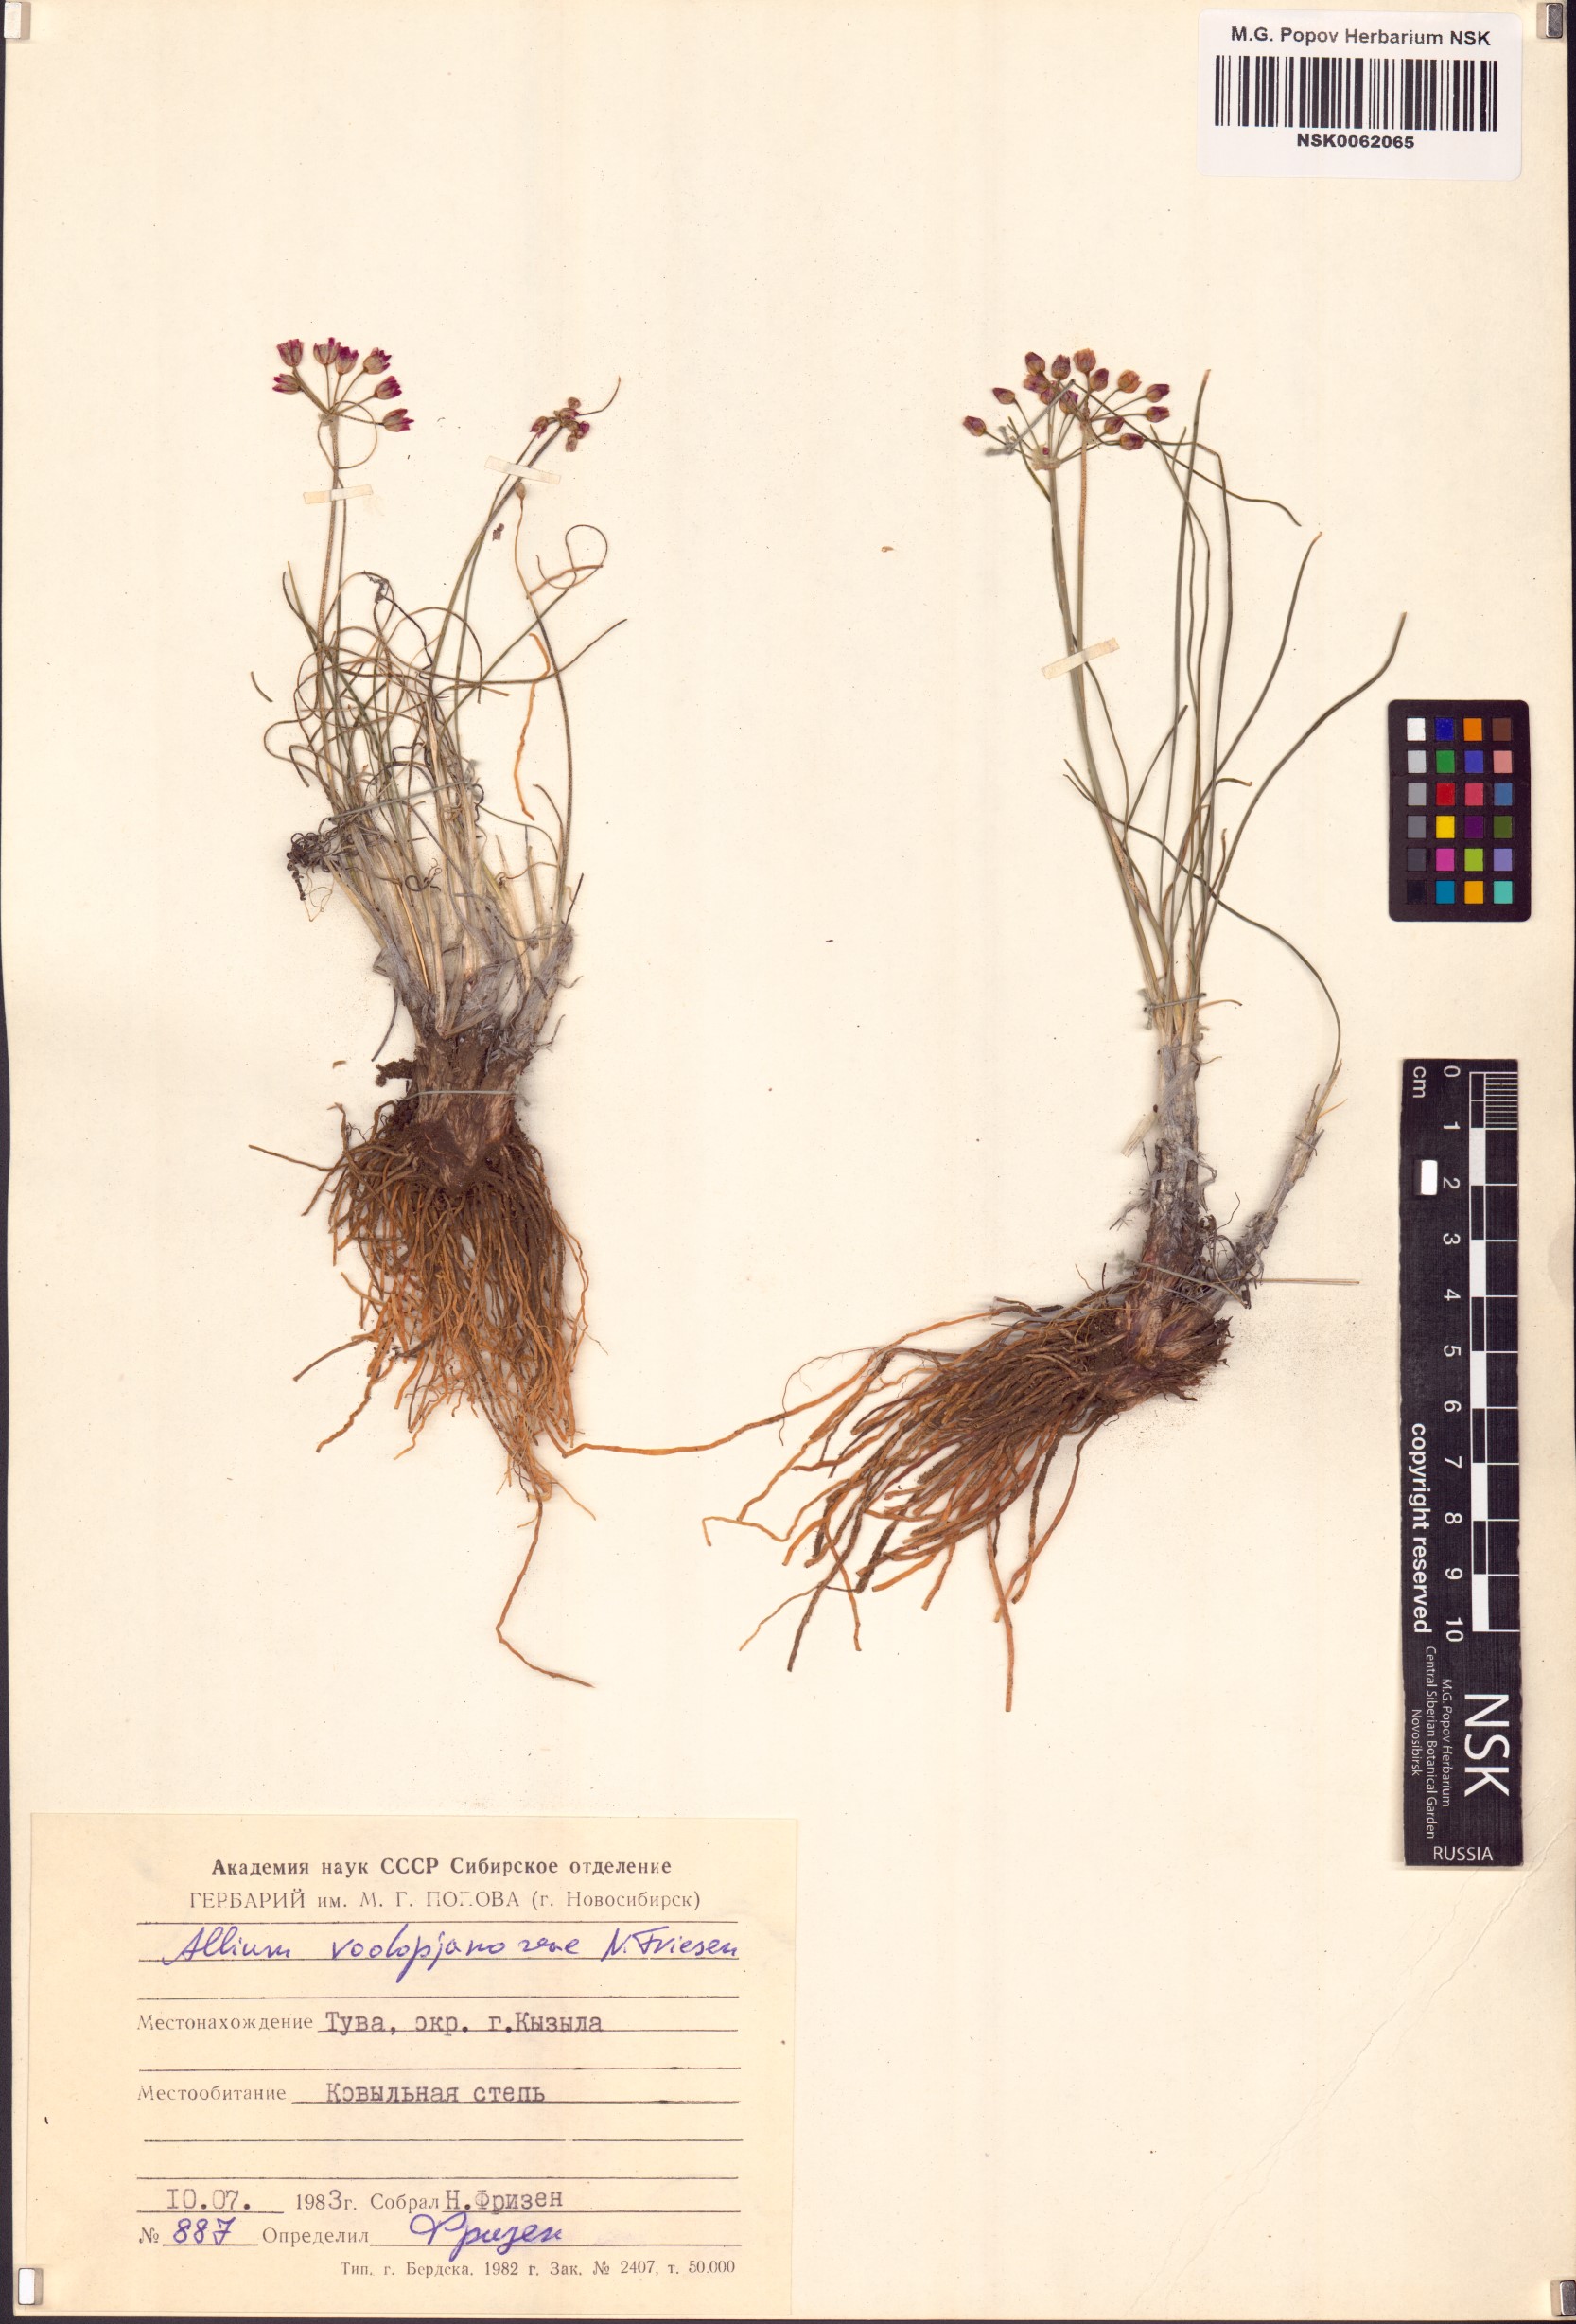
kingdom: Plantae
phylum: Tracheophyta
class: Liliopsida
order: Asparagales
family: Amaryllidaceae
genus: Allium
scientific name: Allium vodopjanovae
